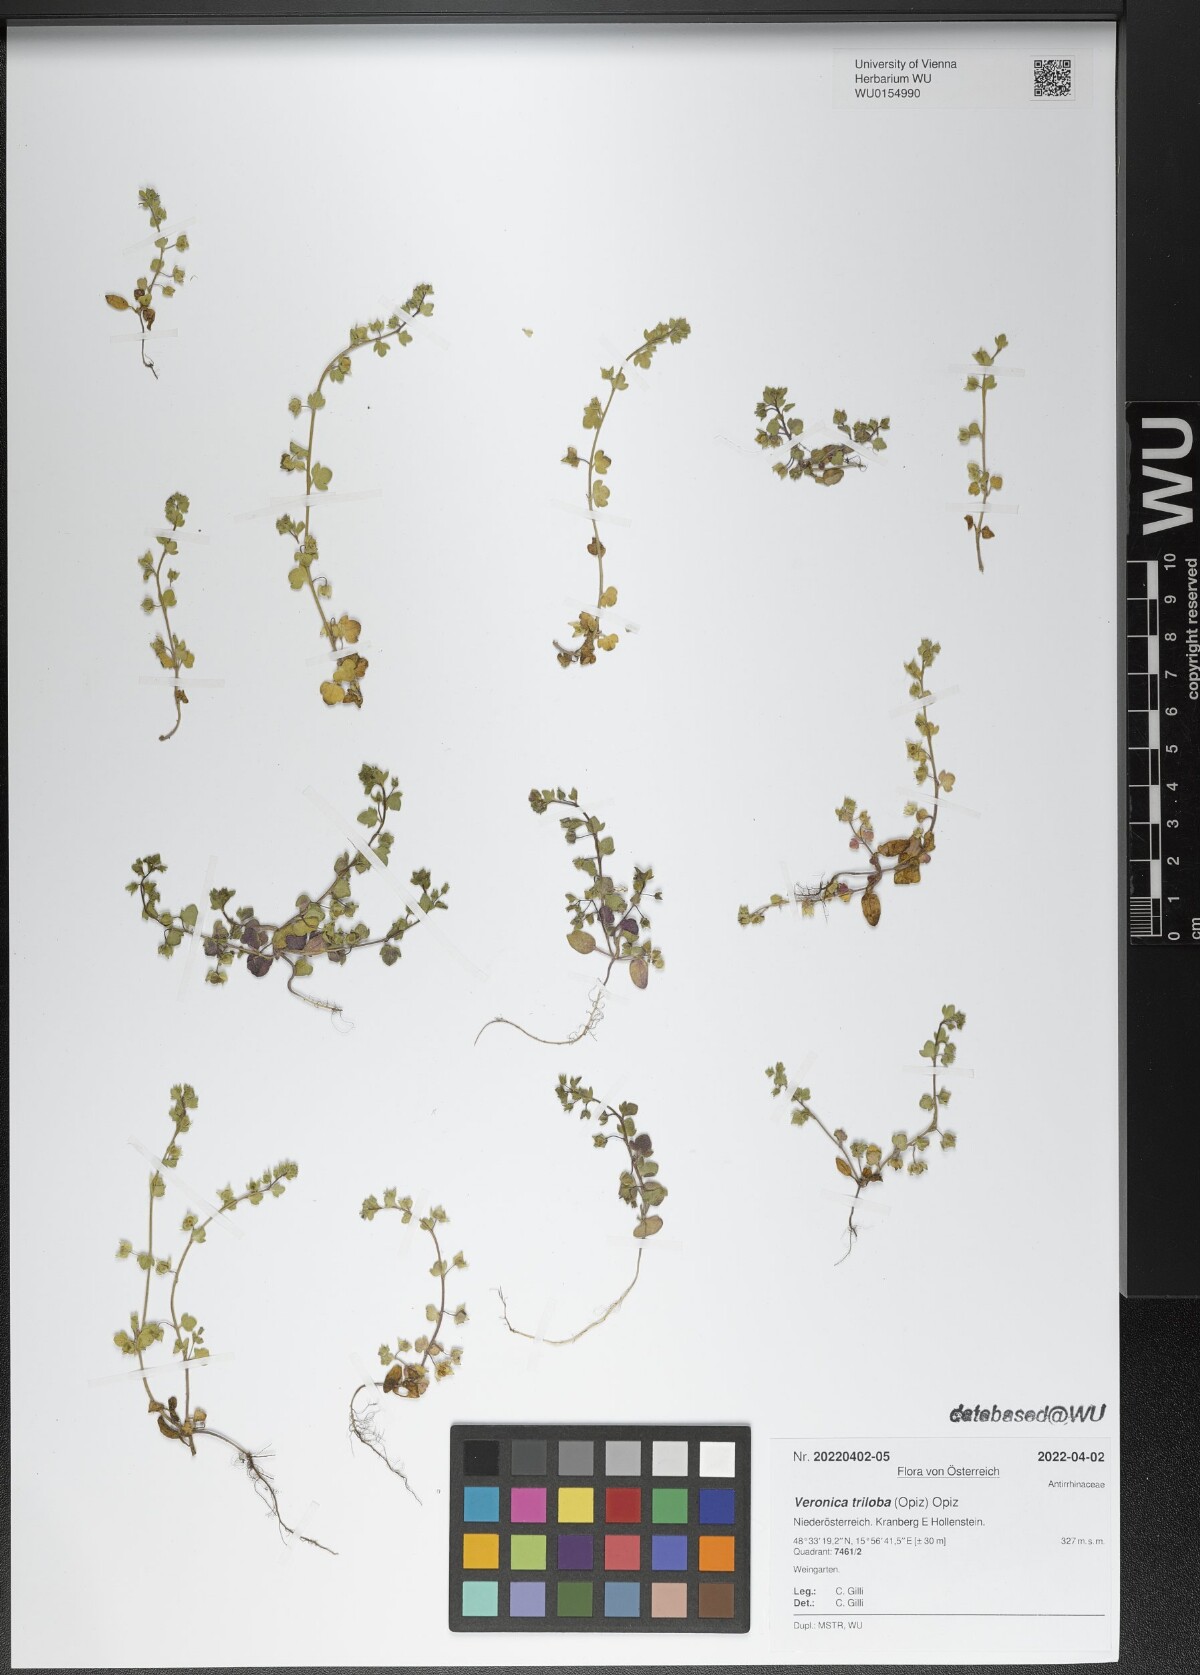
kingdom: Plantae
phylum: Tracheophyta
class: Magnoliopsida
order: Lamiales
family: Plantaginaceae
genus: Veronica
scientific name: Veronica triloba
